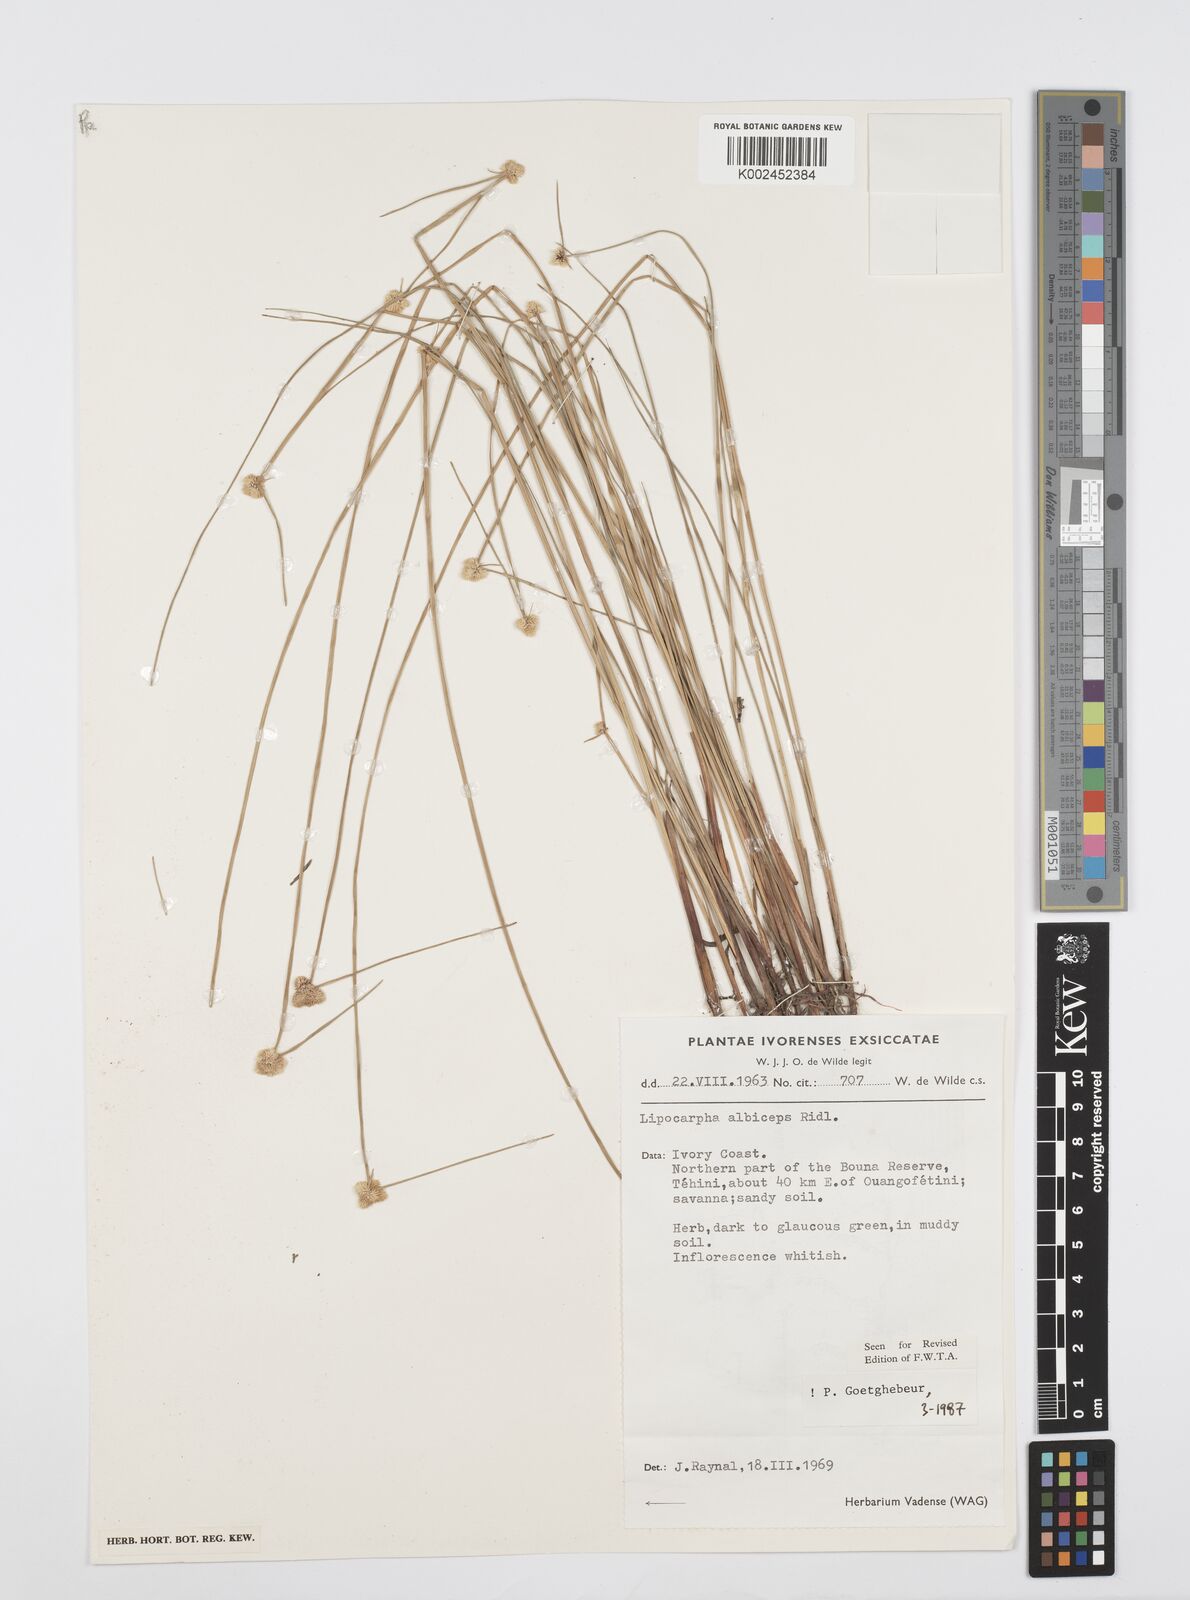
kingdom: Plantae
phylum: Tracheophyta
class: Liliopsida
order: Poales
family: Cyperaceae
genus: Cyperus
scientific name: Cyperus albiceps
